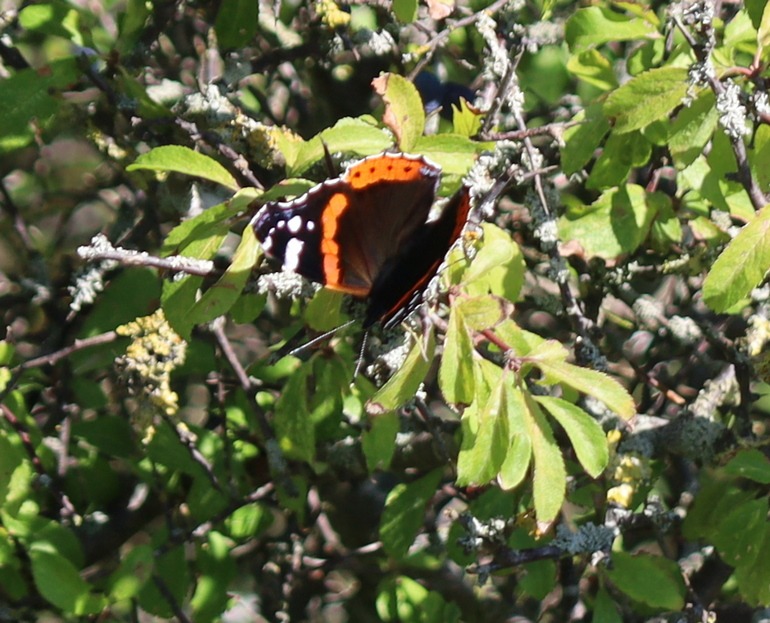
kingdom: Animalia
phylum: Arthropoda
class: Insecta
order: Lepidoptera
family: Nymphalidae
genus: Vanessa
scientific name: Vanessa atalanta
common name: Admiral
